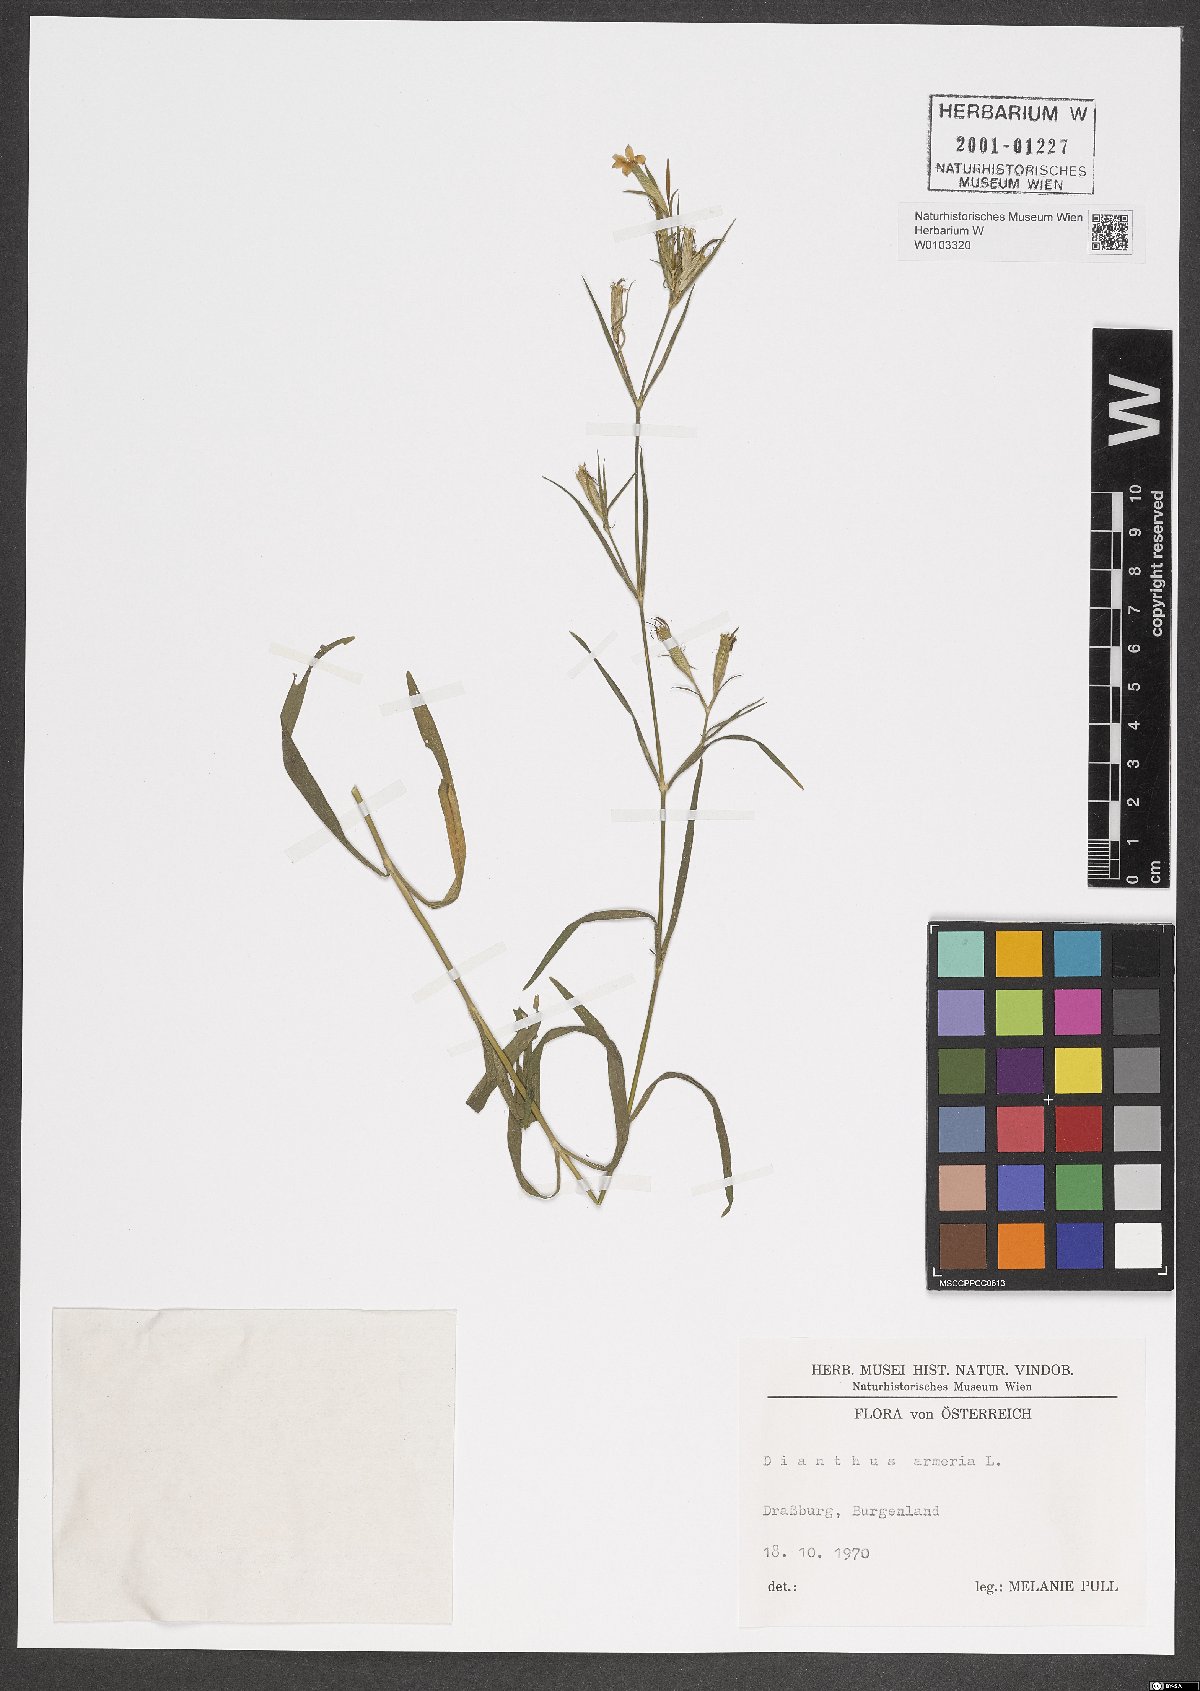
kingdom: Plantae
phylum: Tracheophyta
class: Magnoliopsida
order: Caryophyllales
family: Caryophyllaceae
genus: Dianthus
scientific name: Dianthus armeria
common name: Deptford pink
